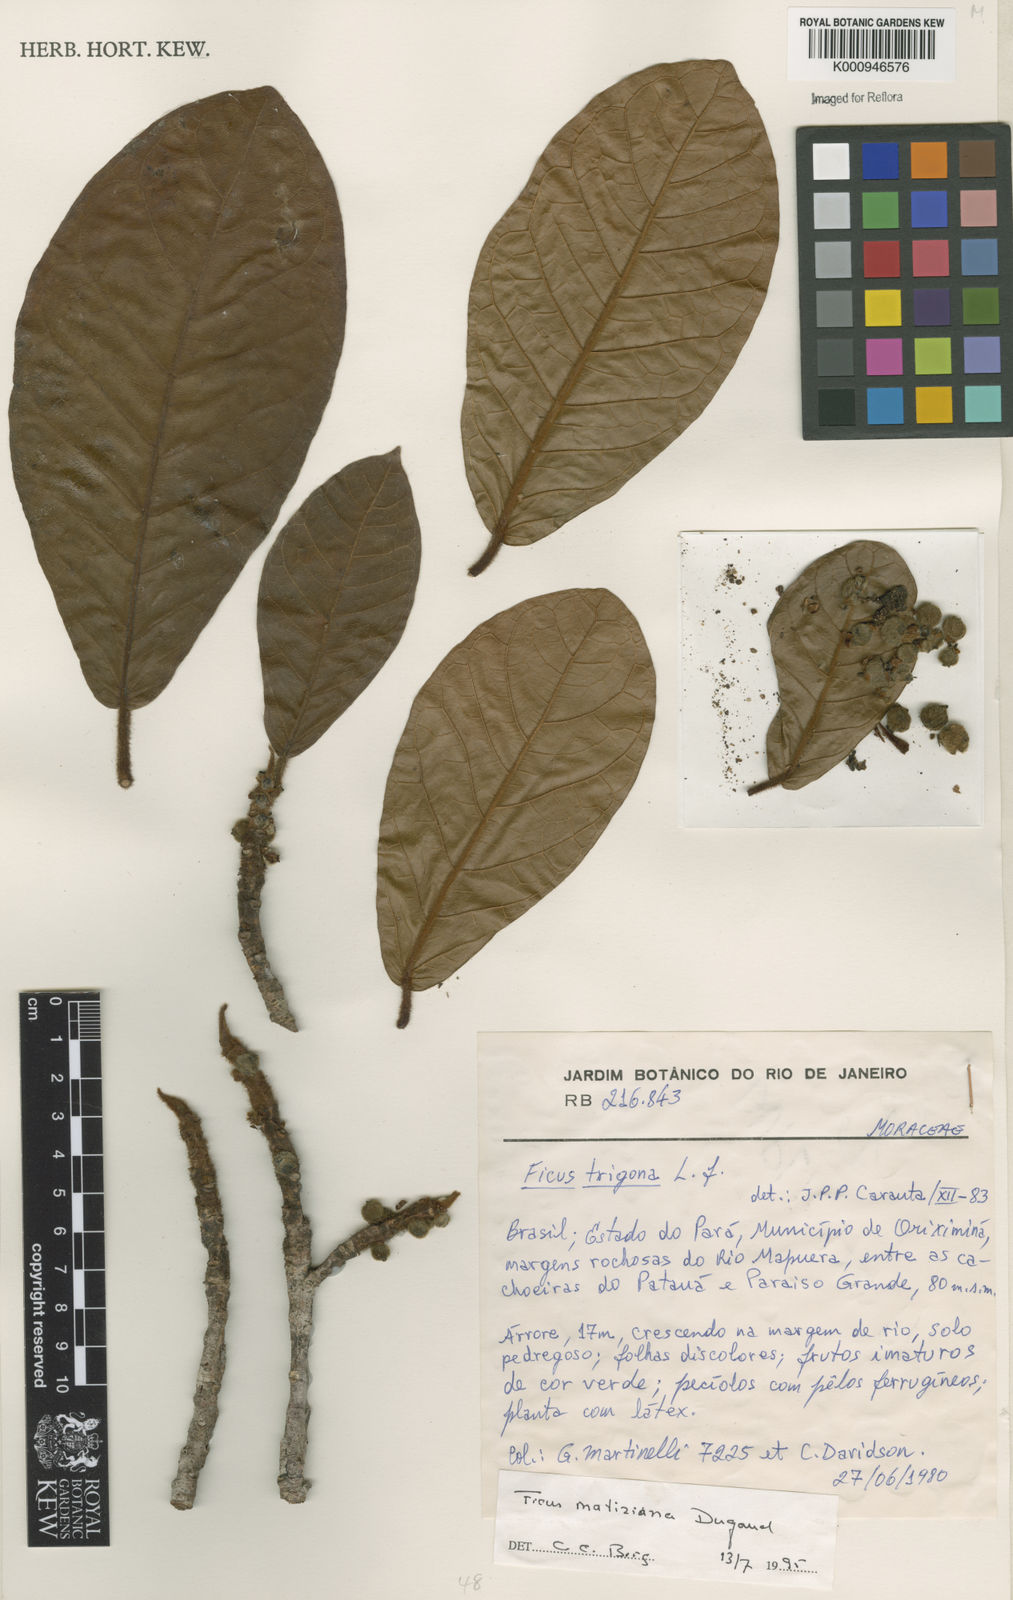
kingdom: Plantae
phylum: Tracheophyta
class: Magnoliopsida
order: Rosales
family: Moraceae
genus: Ficus
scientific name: Ficus matiziana
